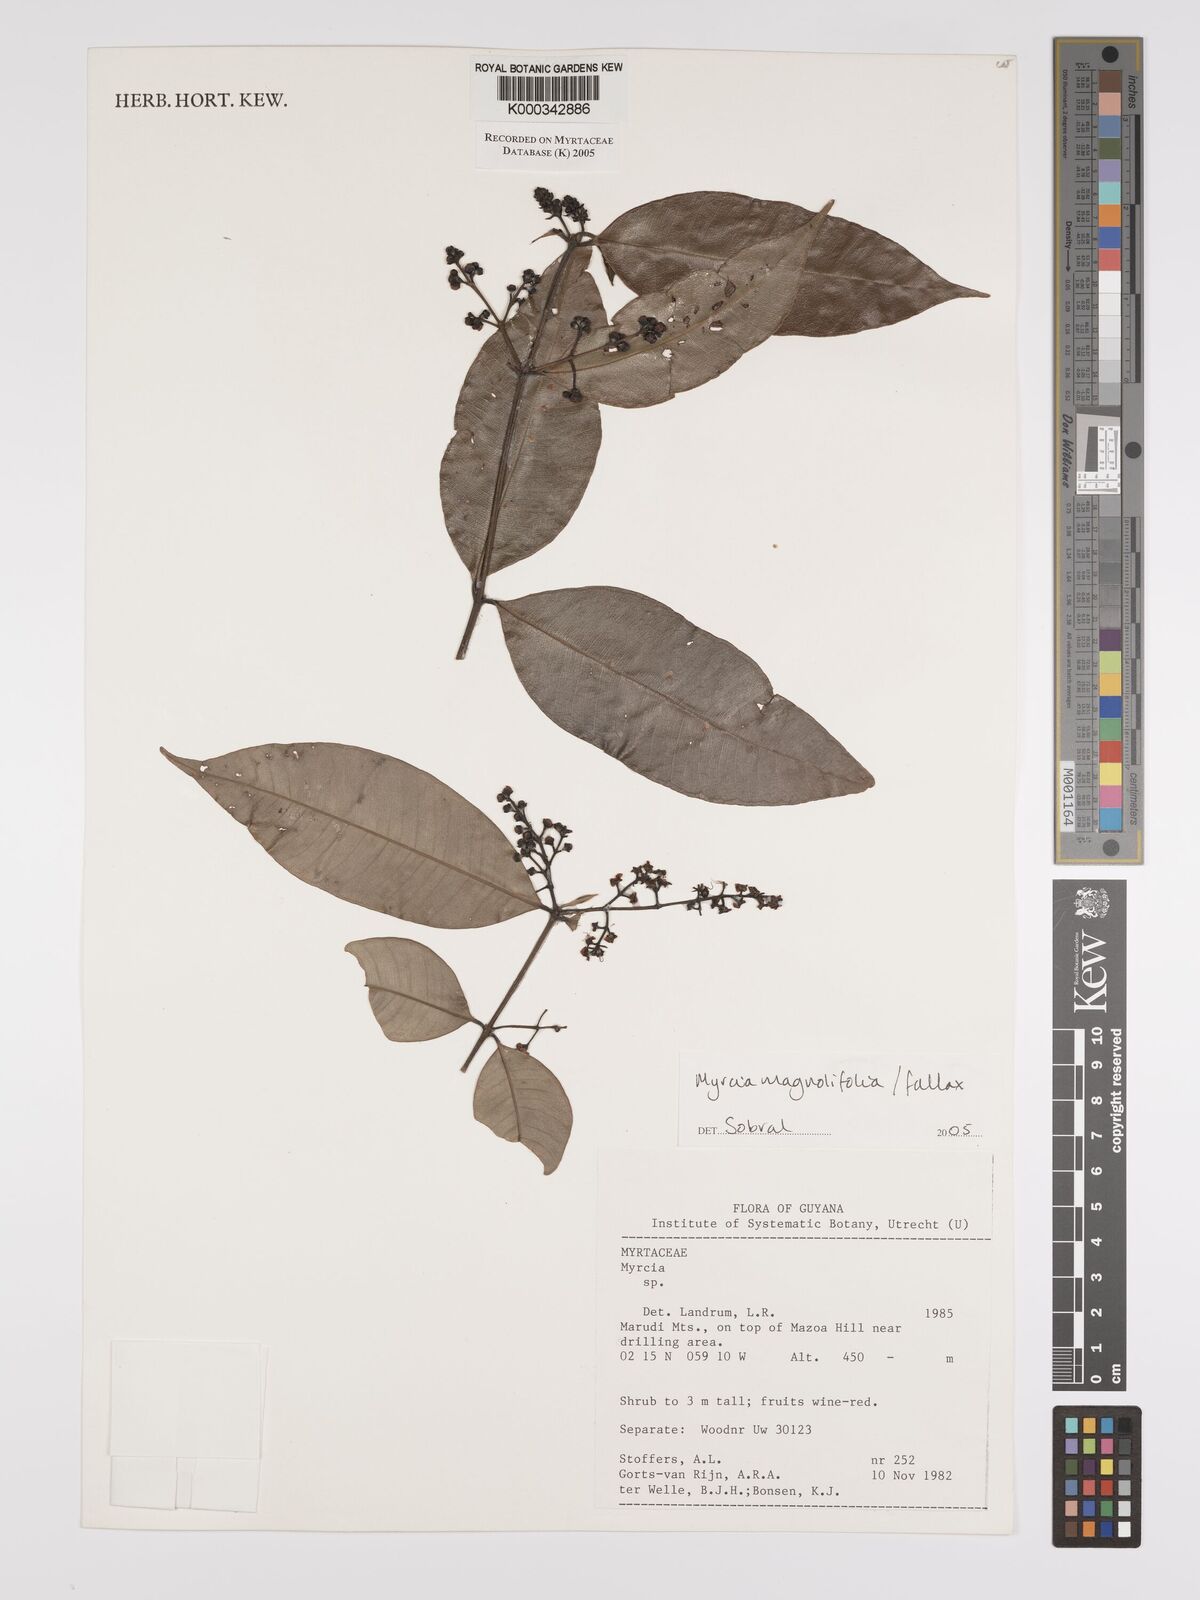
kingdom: Plantae
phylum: Tracheophyta
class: Magnoliopsida
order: Myrtales
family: Myrtaceae
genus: Myrcia
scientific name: Myrcia splendens
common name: Surinam cherry
